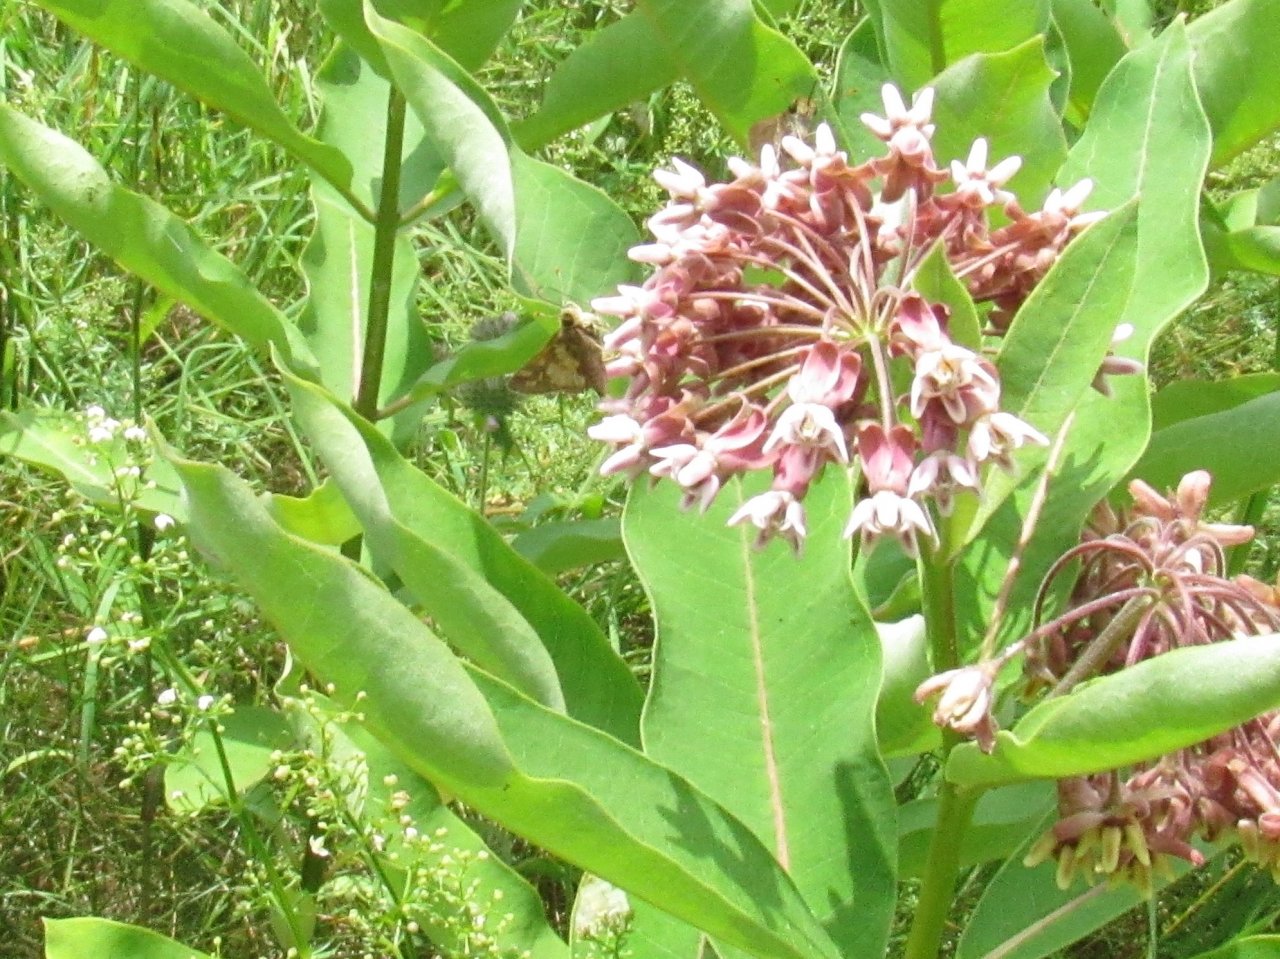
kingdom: Animalia
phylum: Arthropoda
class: Insecta
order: Lepidoptera
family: Hesperiidae
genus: Polites
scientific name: Polites coras
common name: Peck's Skipper
